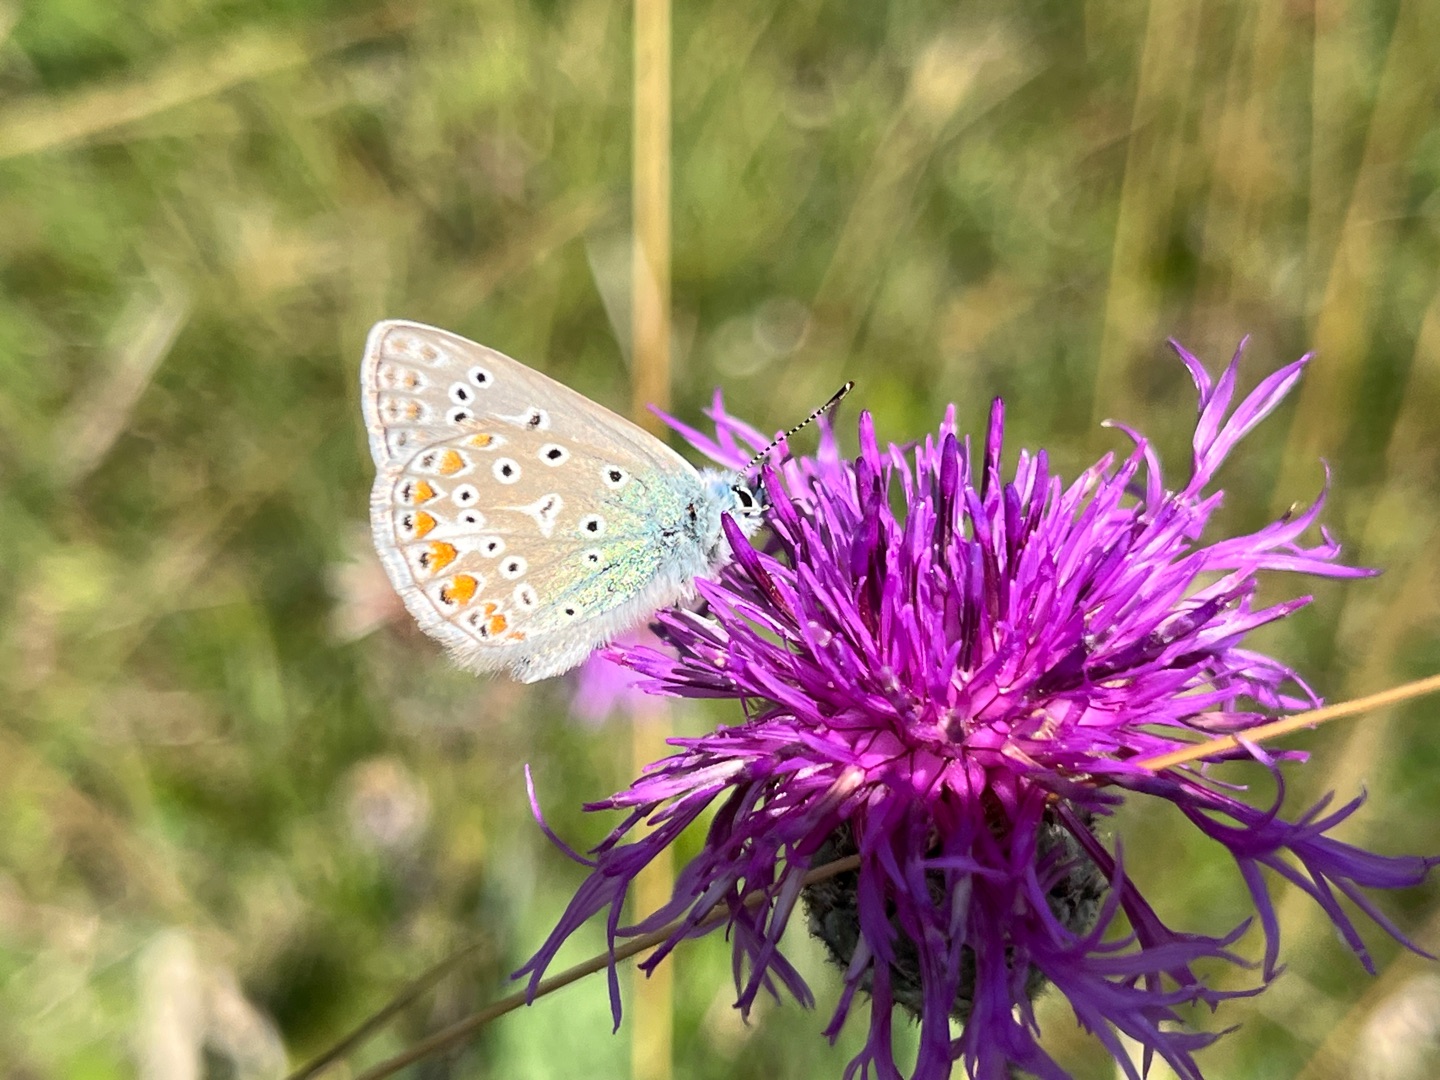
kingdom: Animalia
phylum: Arthropoda
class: Insecta
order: Lepidoptera
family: Lycaenidae
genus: Polyommatus
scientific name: Polyommatus icarus
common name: Almindelig blåfugl
